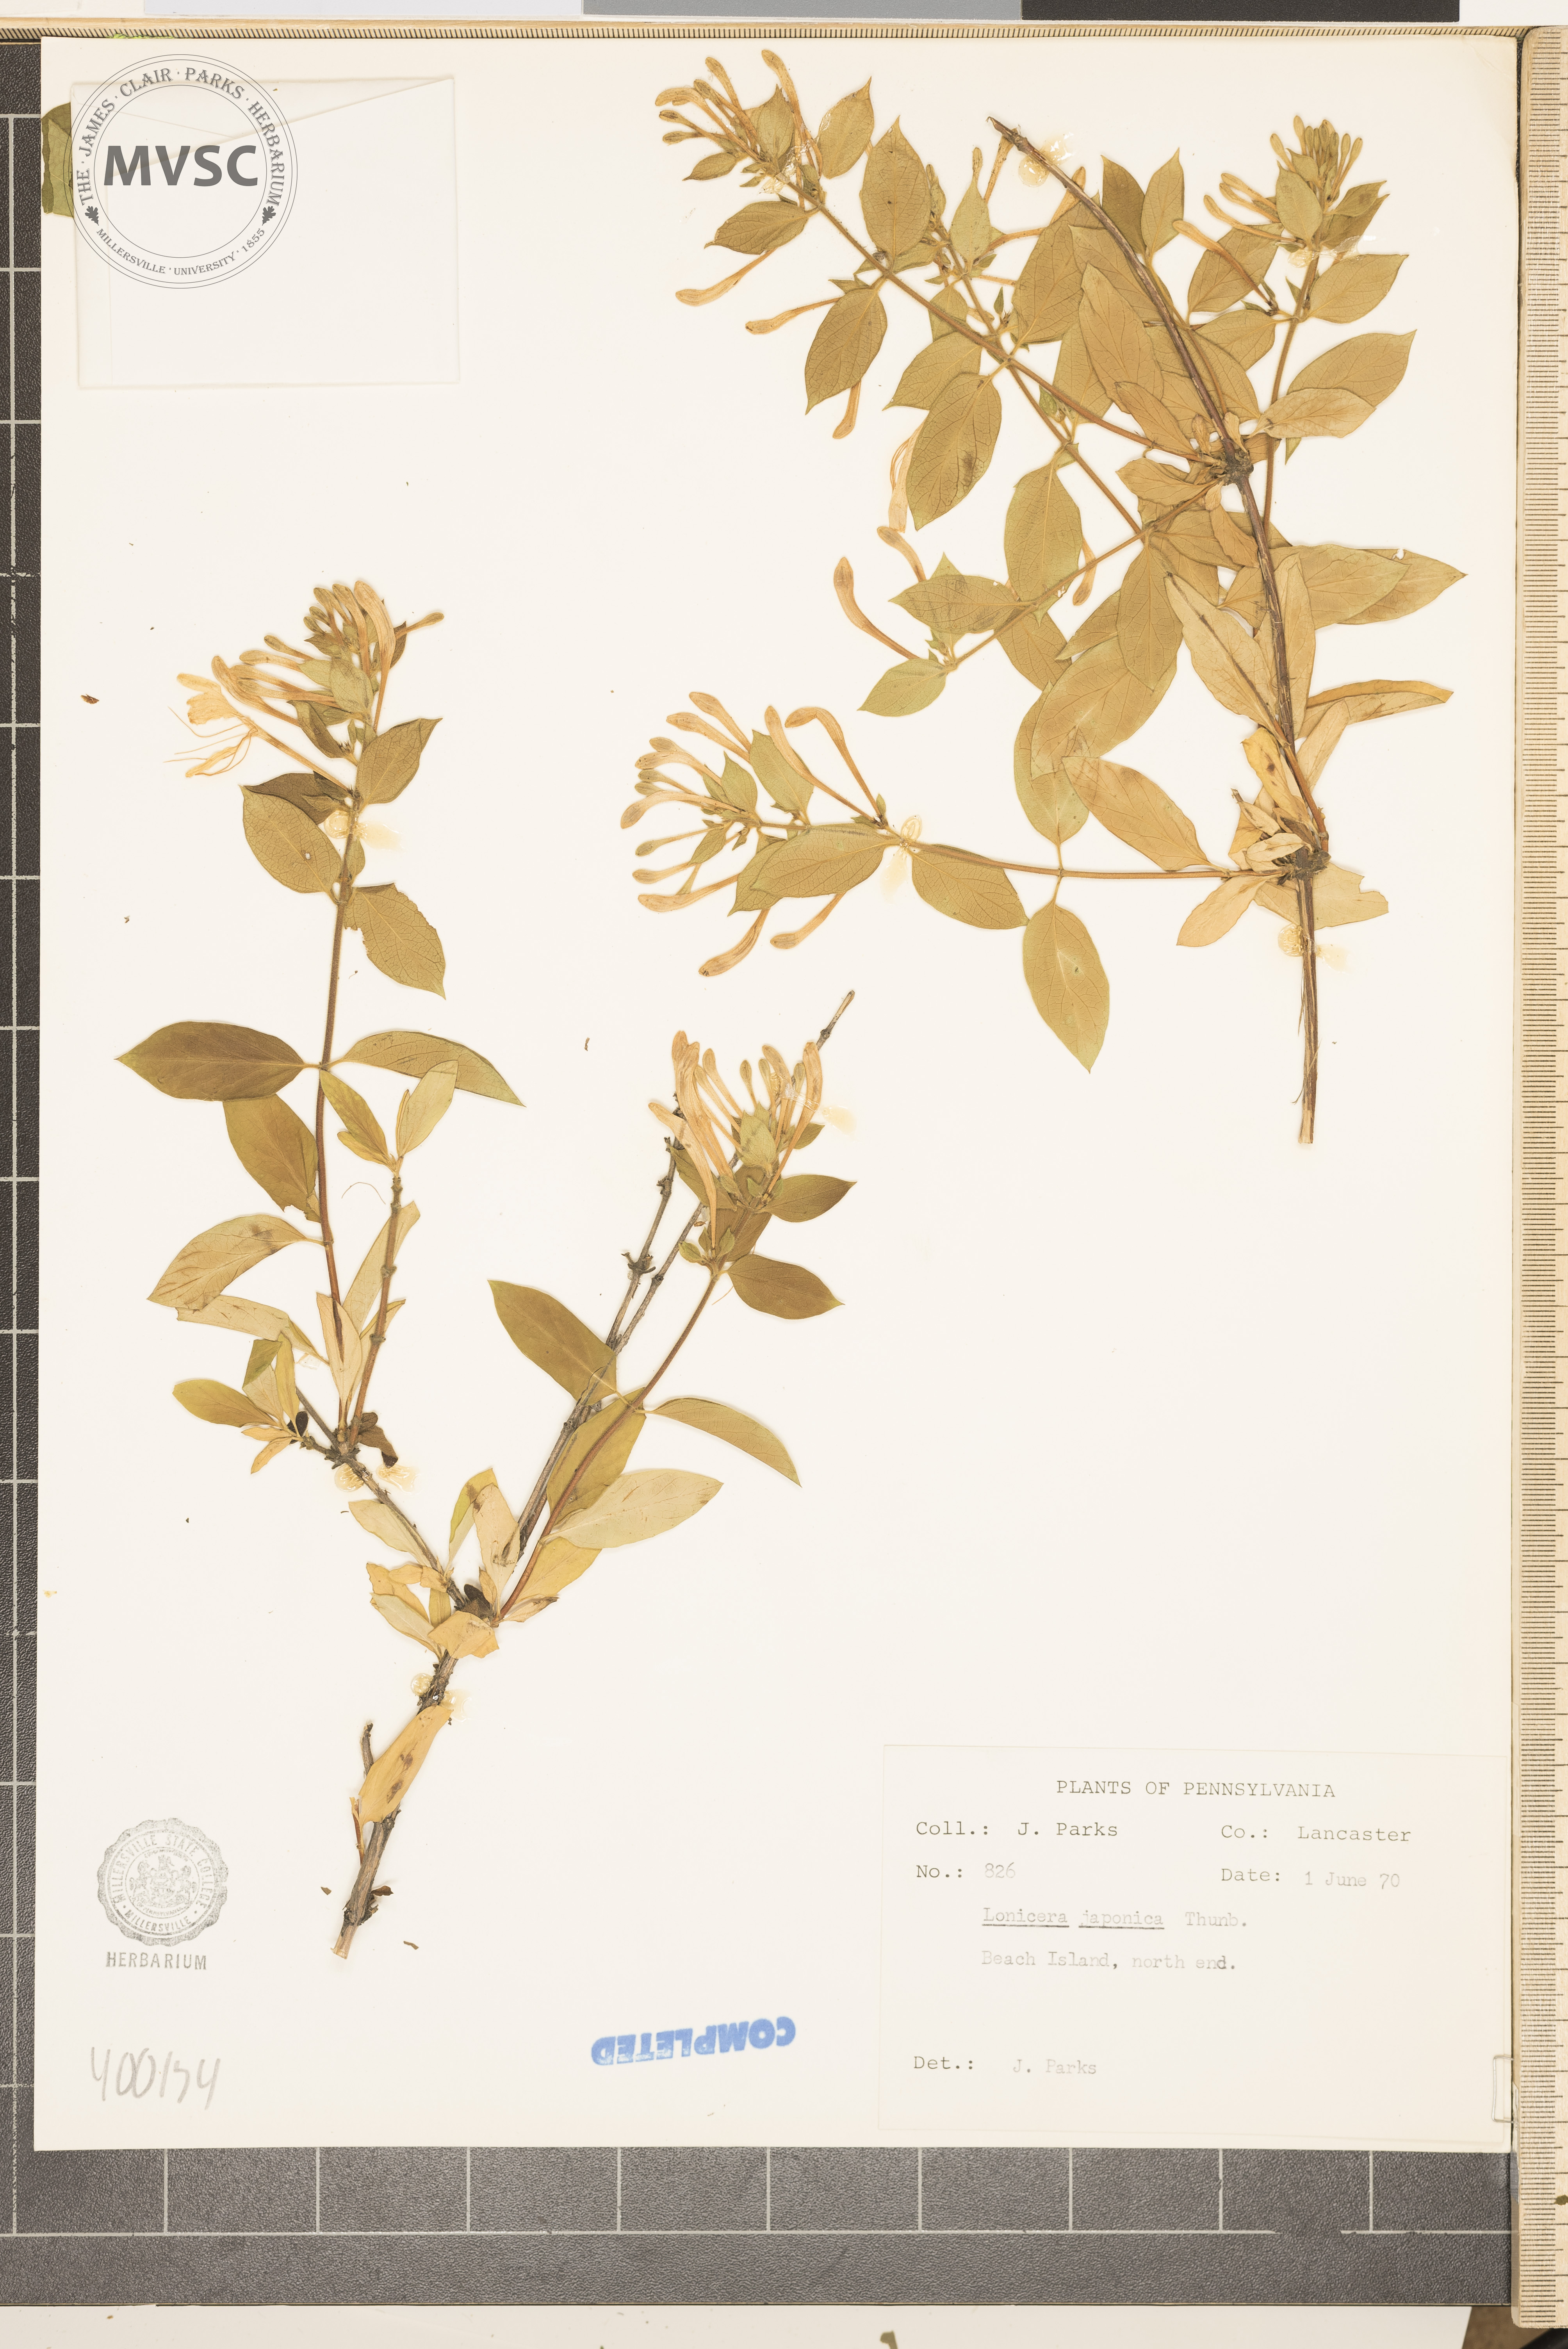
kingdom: Plantae
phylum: Tracheophyta
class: Magnoliopsida
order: Dipsacales
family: Caprifoliaceae
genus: Lonicera
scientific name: Lonicera japonica
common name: Japanese honeysuckle
